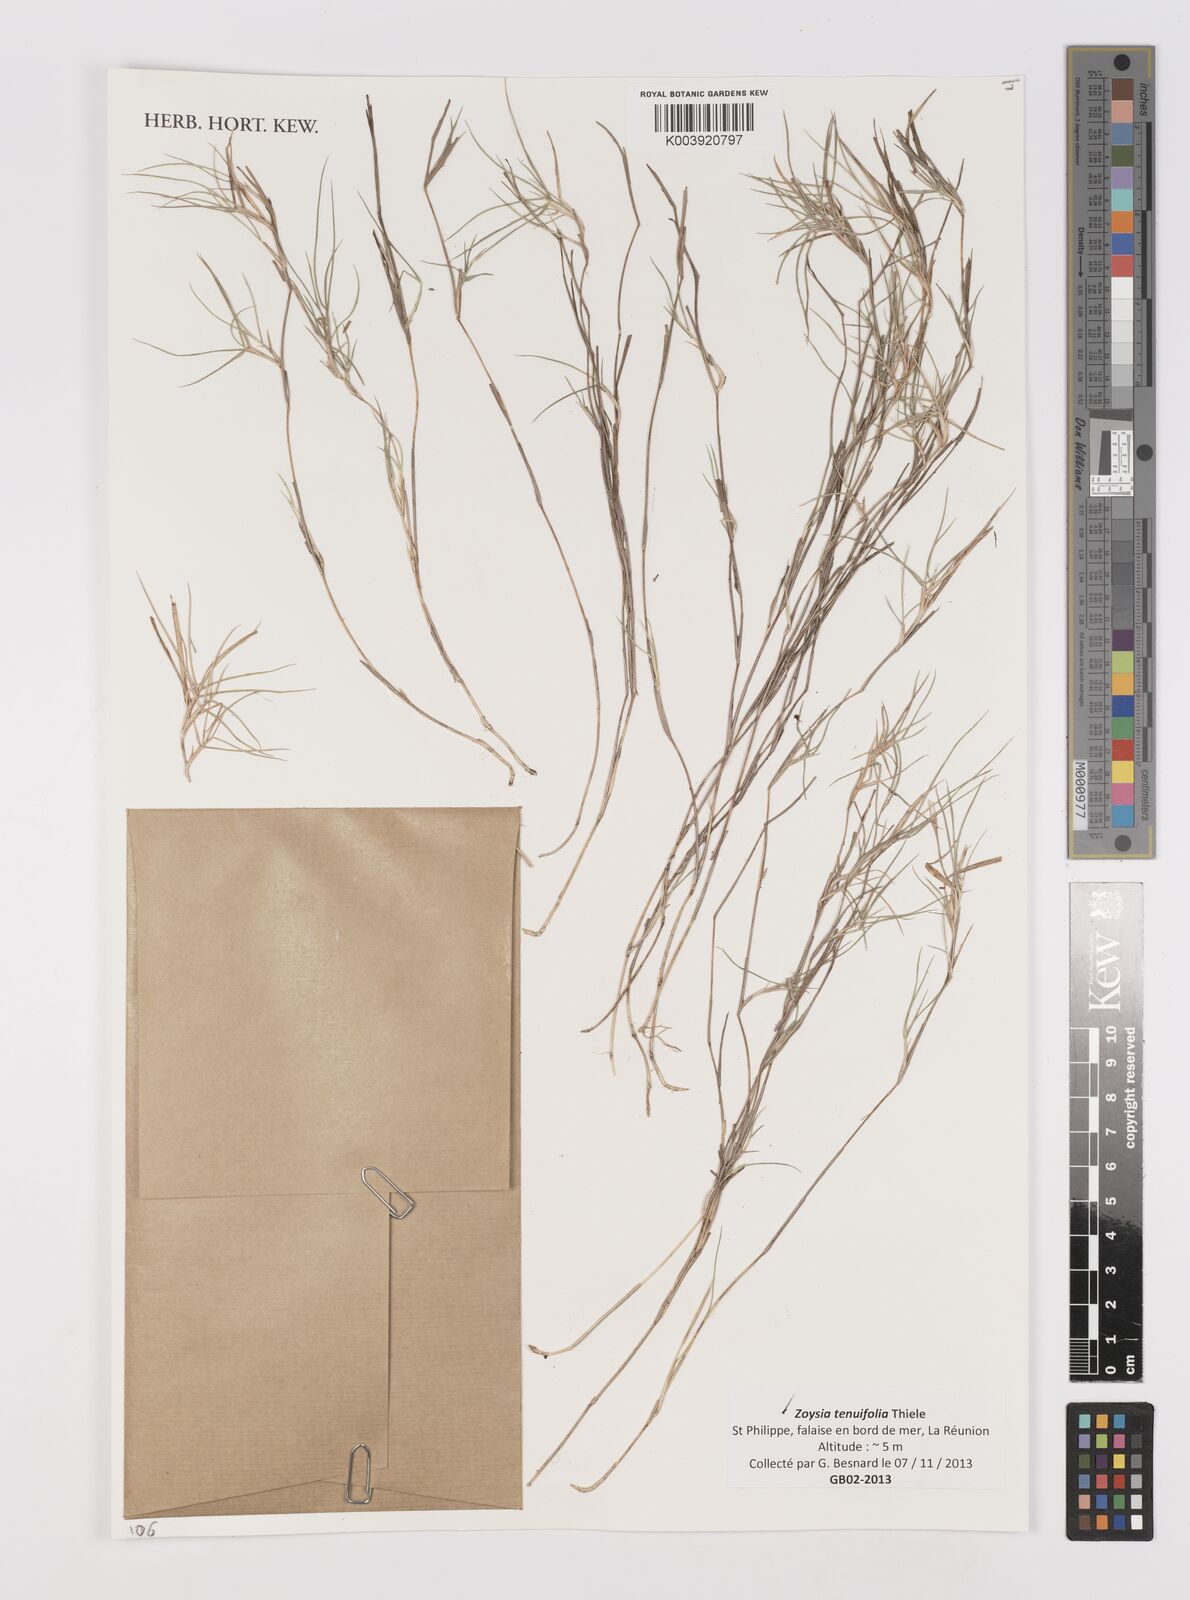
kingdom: Plantae
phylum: Tracheophyta
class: Liliopsida
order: Poales
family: Poaceae
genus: Zoysia
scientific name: Zoysia matrella
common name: Manila grass
